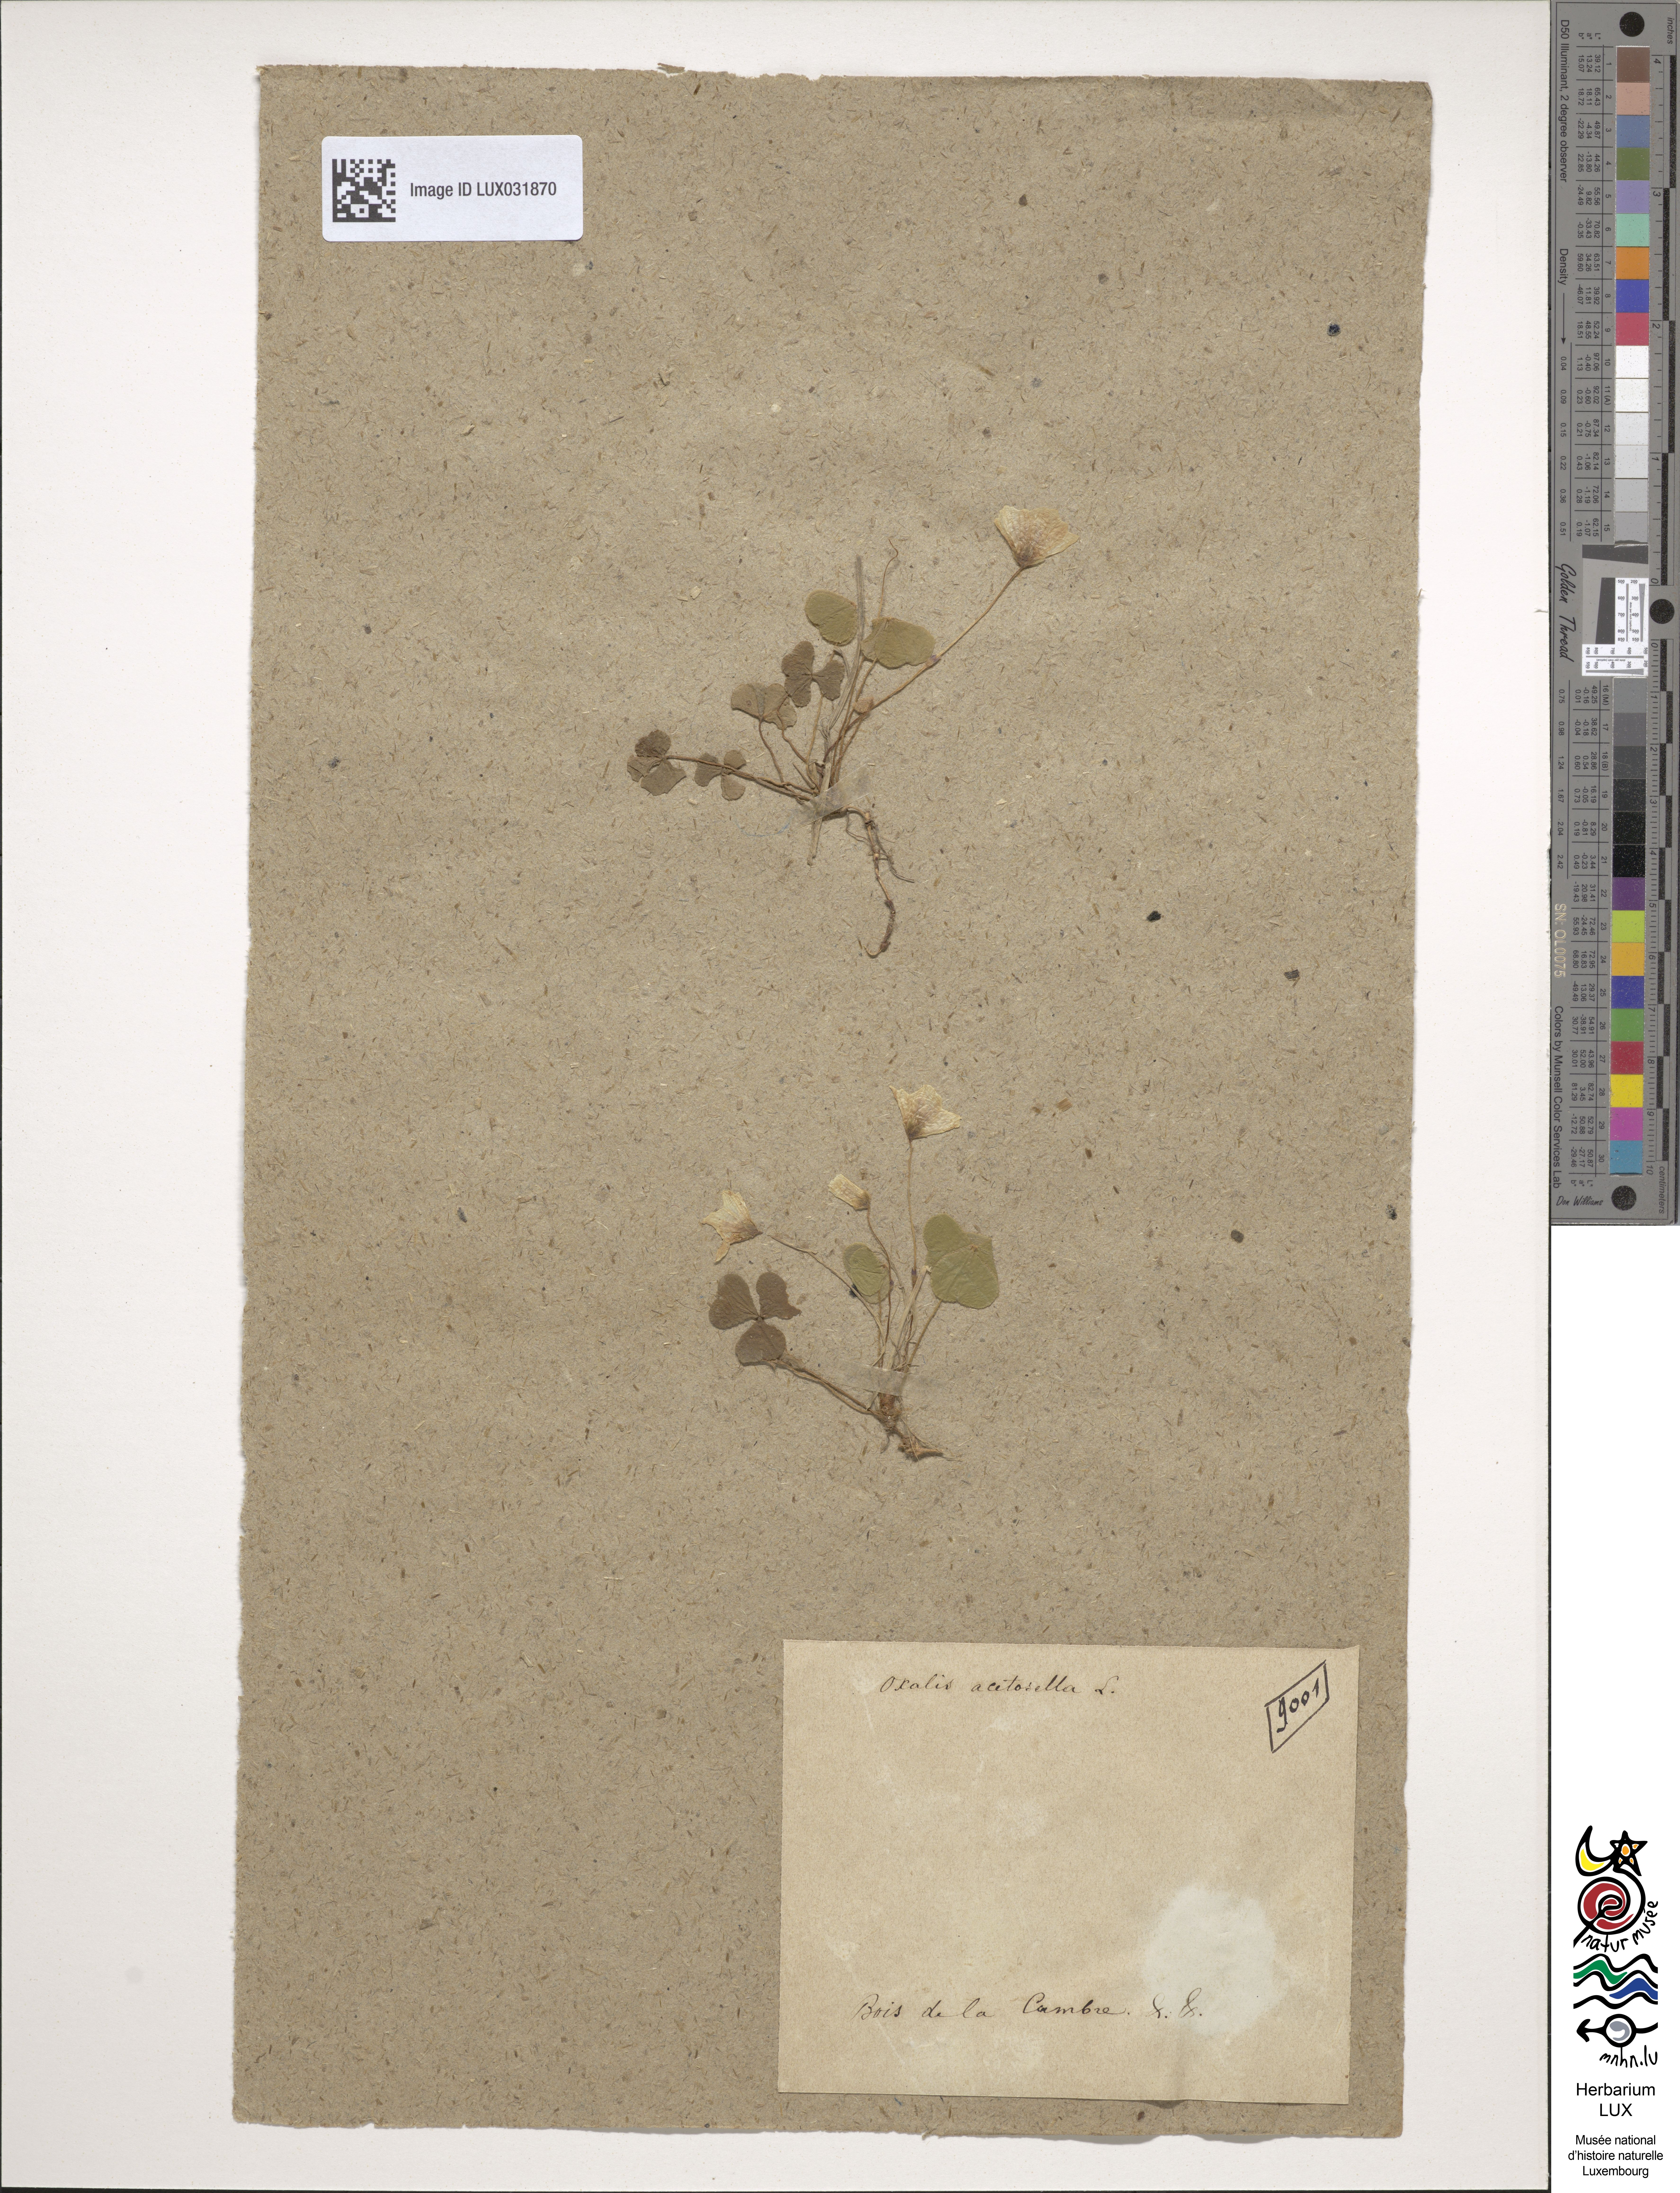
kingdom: Plantae
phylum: Tracheophyta
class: Magnoliopsida
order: Oxalidales
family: Oxalidaceae
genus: Oxalis
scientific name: Oxalis acetosella
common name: Wood-sorrel
